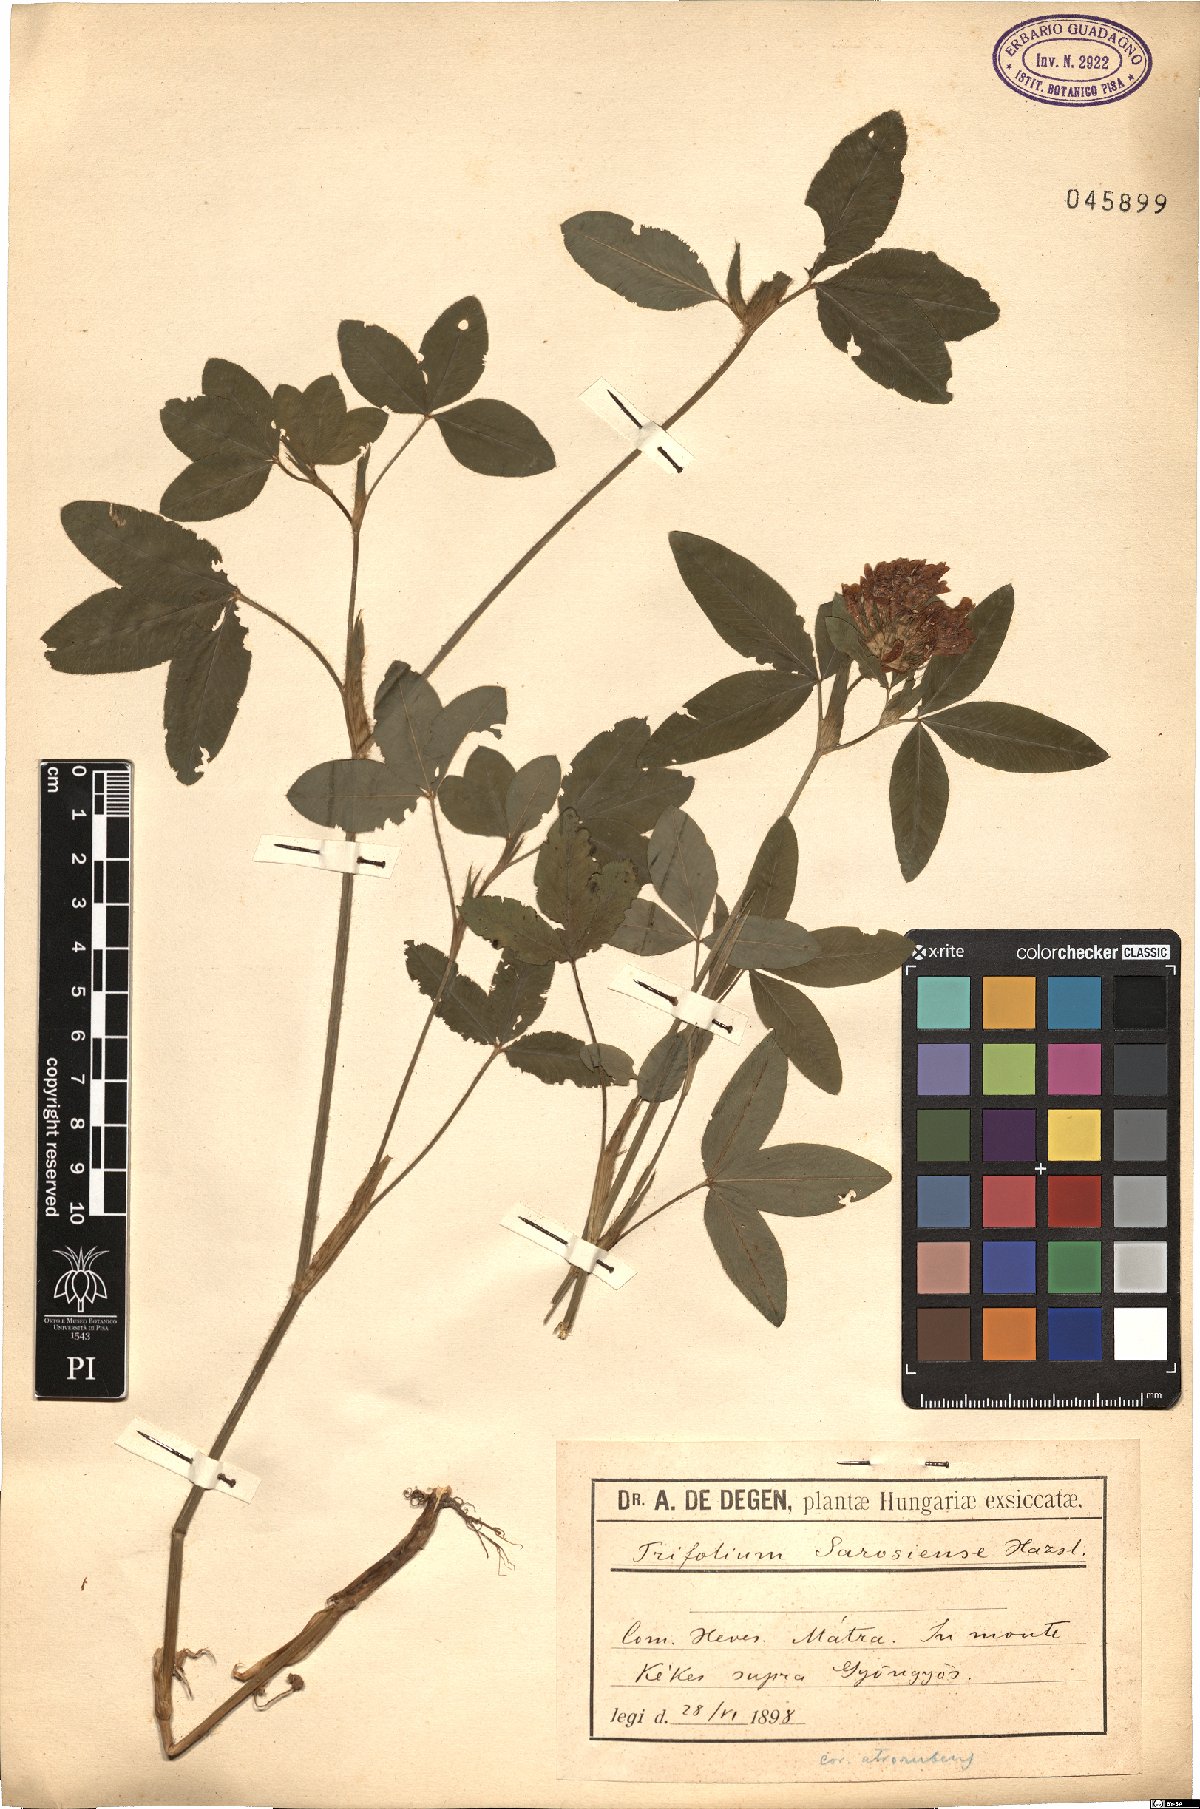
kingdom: Plantae
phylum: Tracheophyta
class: Magnoliopsida
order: Fabales
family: Fabaceae
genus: Trifolium
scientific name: Trifolium sarosiense
